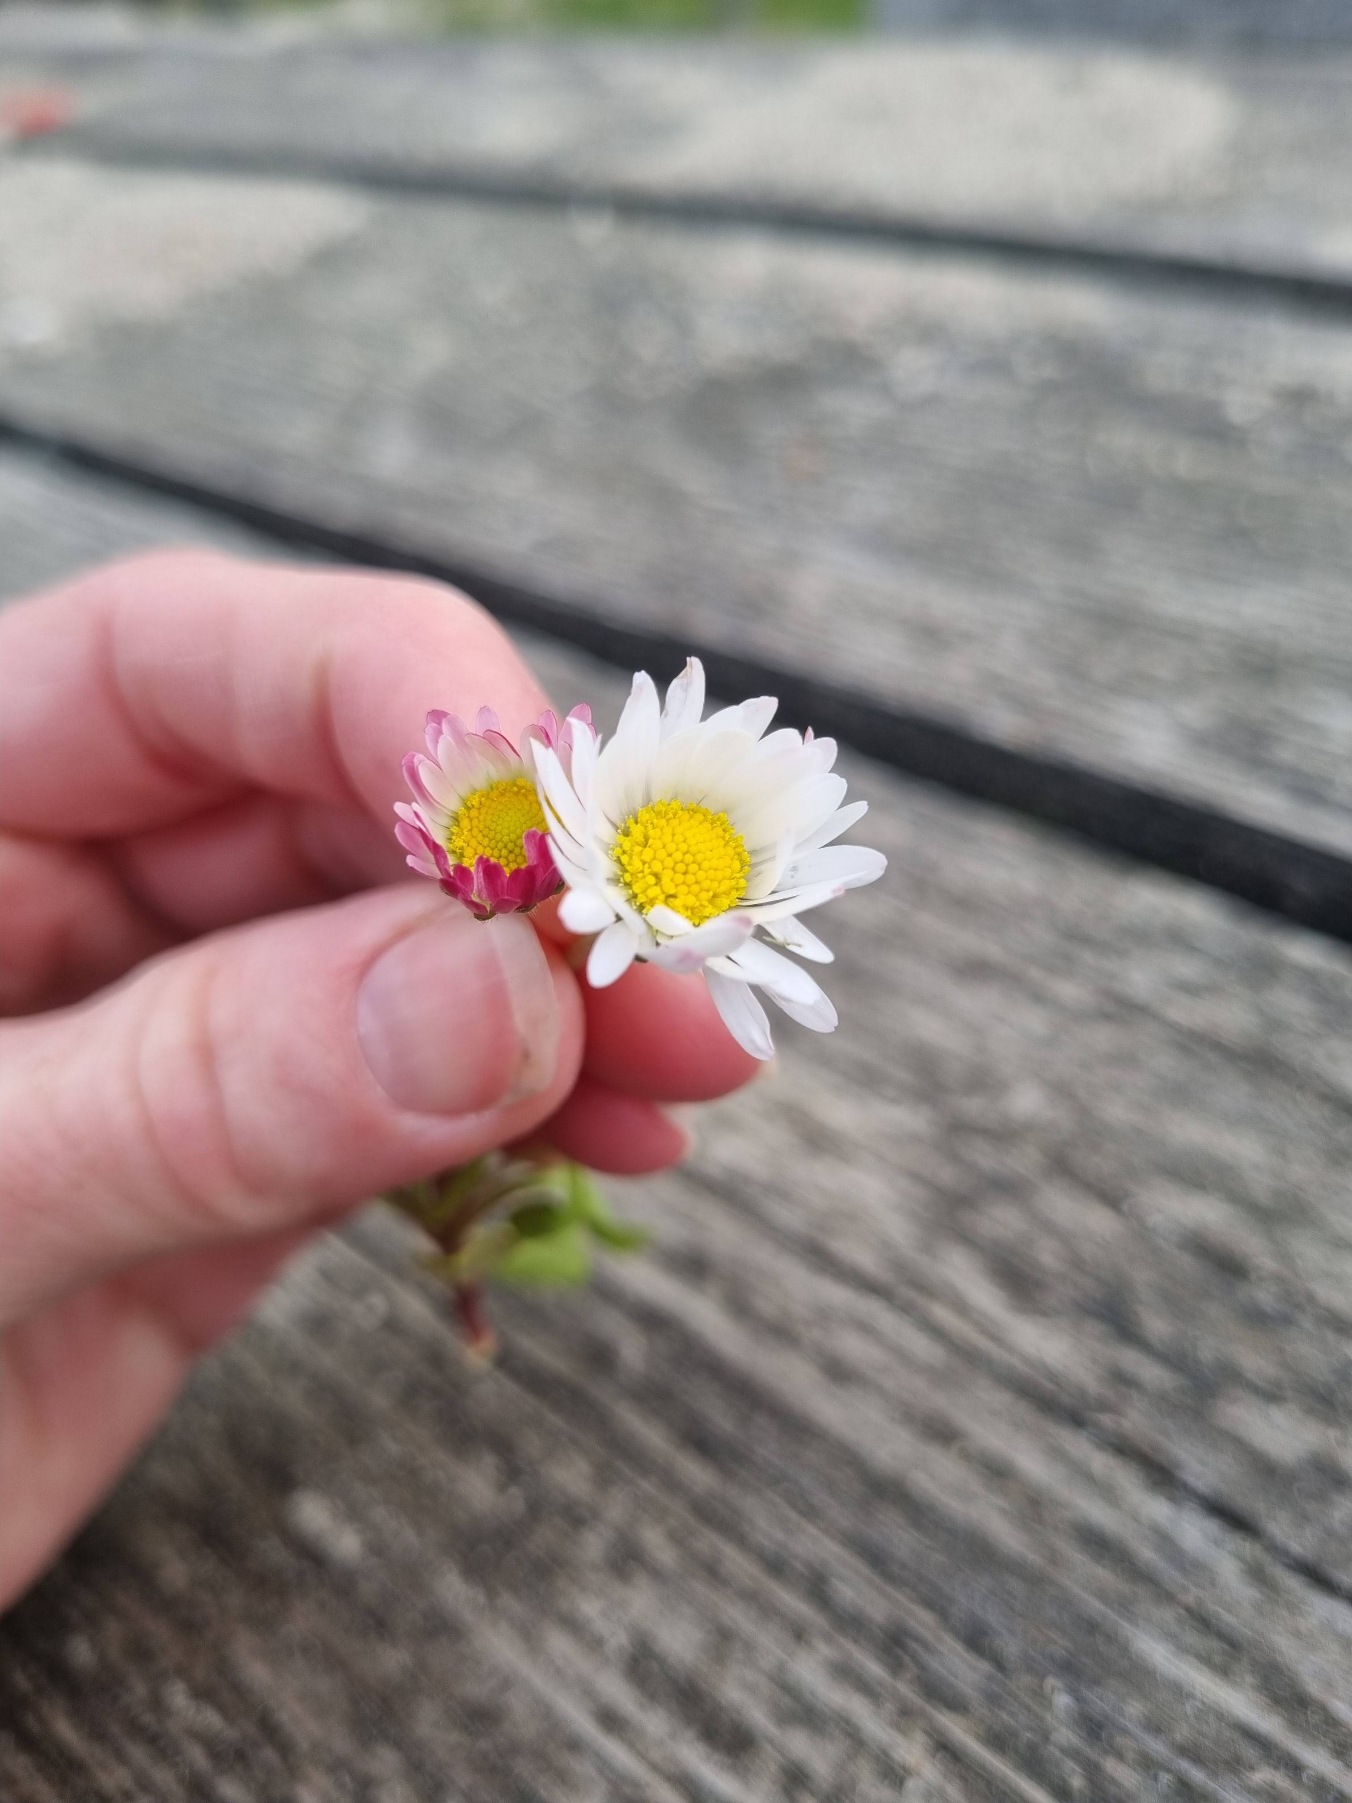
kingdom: Plantae
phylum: Tracheophyta
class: Magnoliopsida
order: Asterales
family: Asteraceae
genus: Bellis
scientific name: Bellis perennis
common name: Tusindfryd
